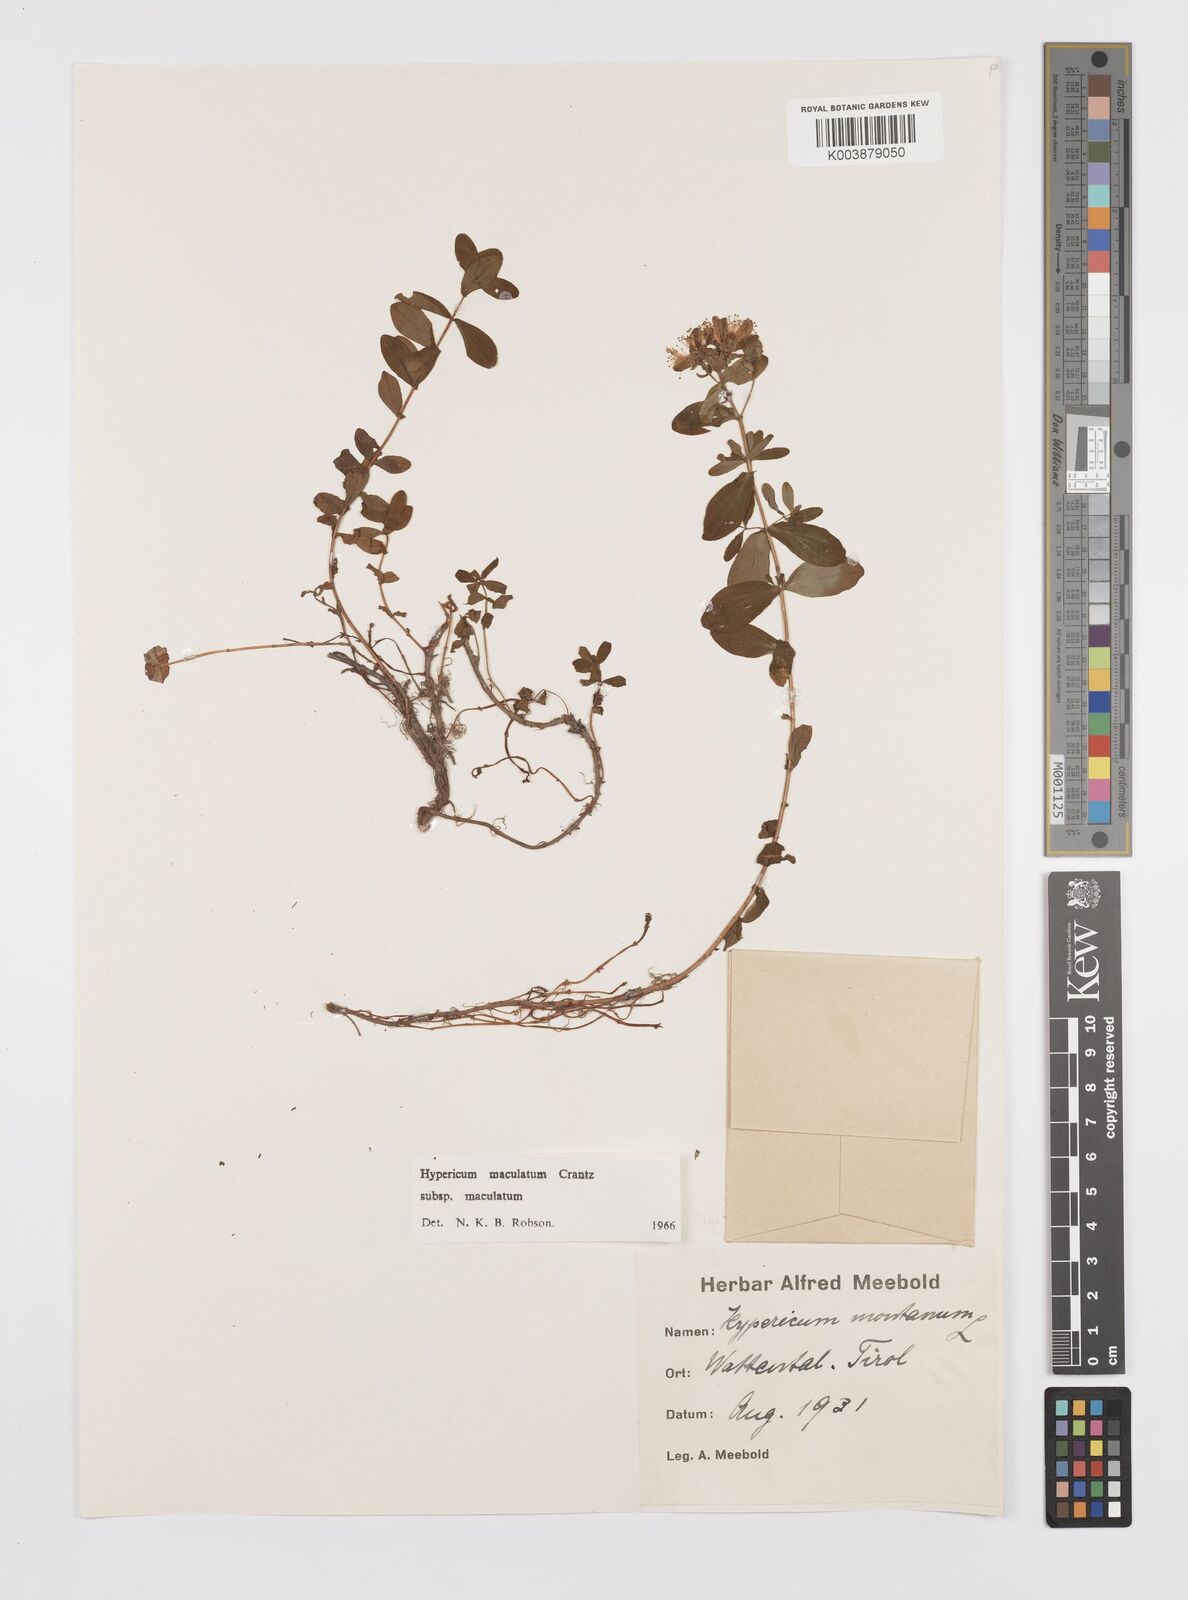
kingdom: Plantae
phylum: Tracheophyta
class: Magnoliopsida
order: Malpighiales
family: Hypericaceae
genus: Hypericum
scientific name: Hypericum maculatum
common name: Imperforate st. john's-wort
